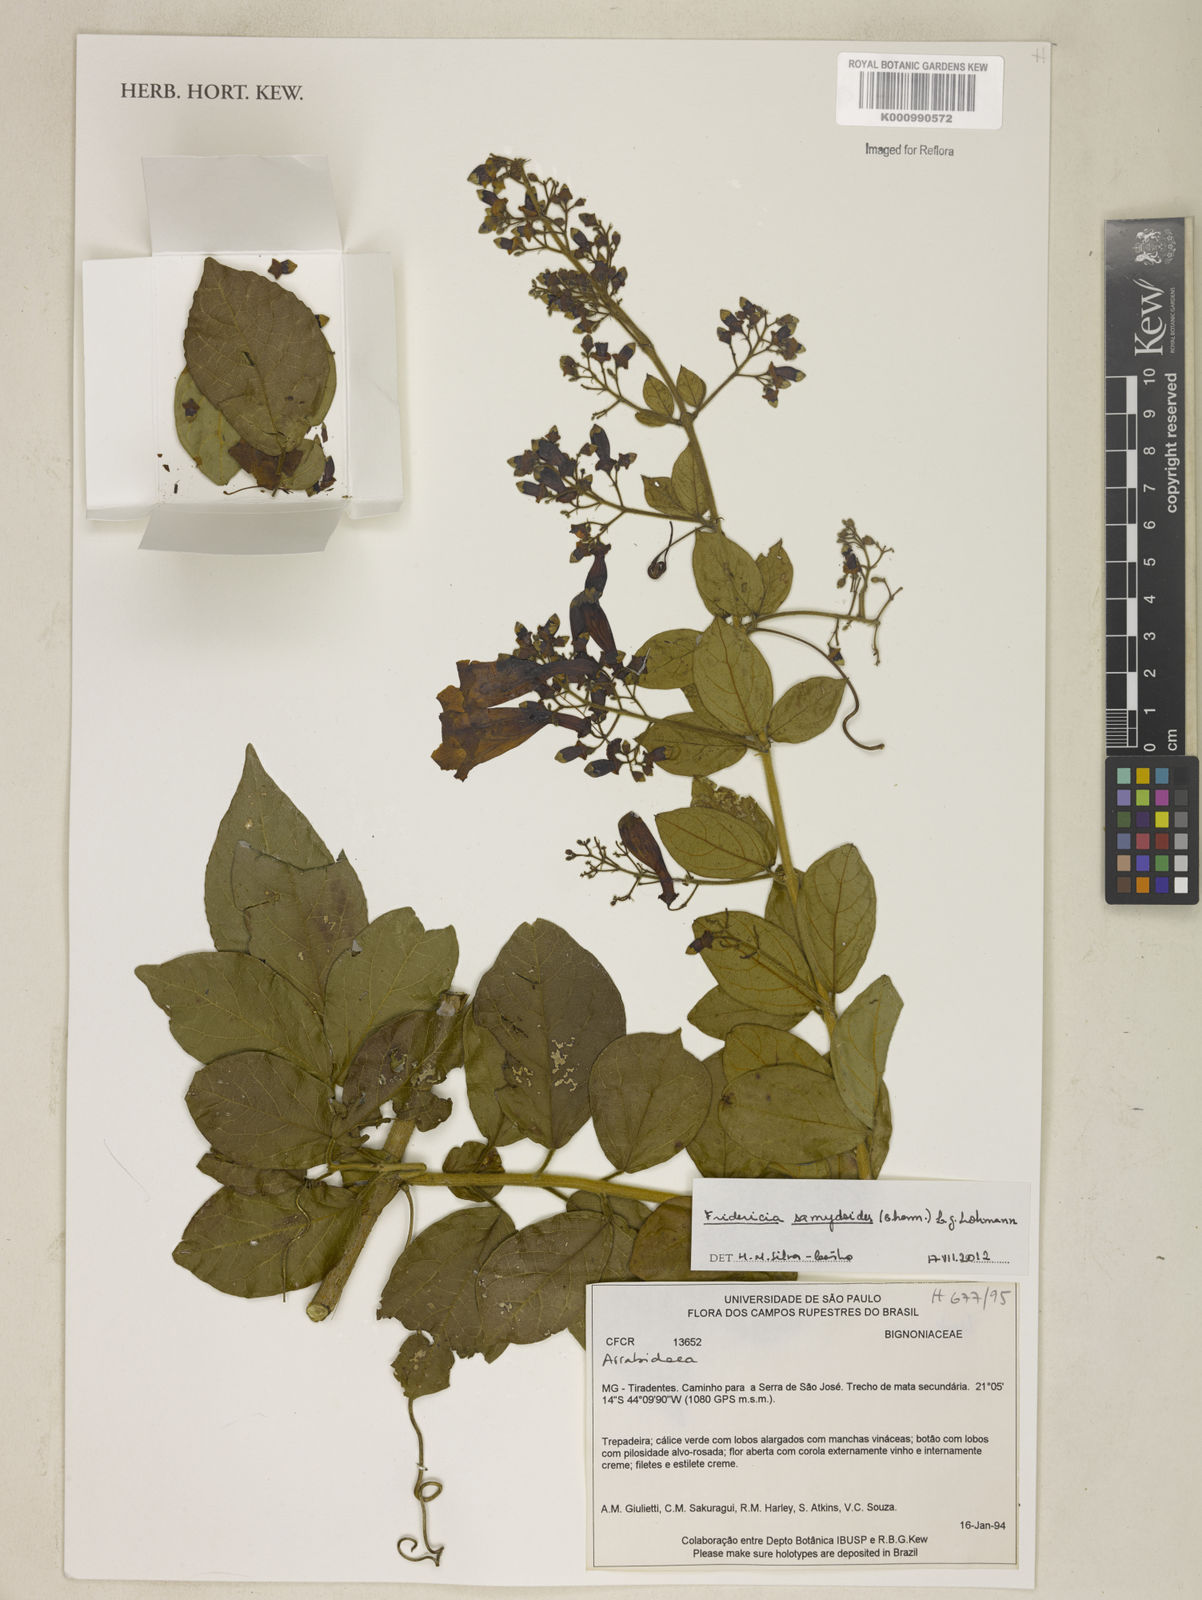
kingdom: Plantae
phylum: Tracheophyta
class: Magnoliopsida
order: Lamiales
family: Bignoniaceae
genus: Fridericia
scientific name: Fridericia samydoides
